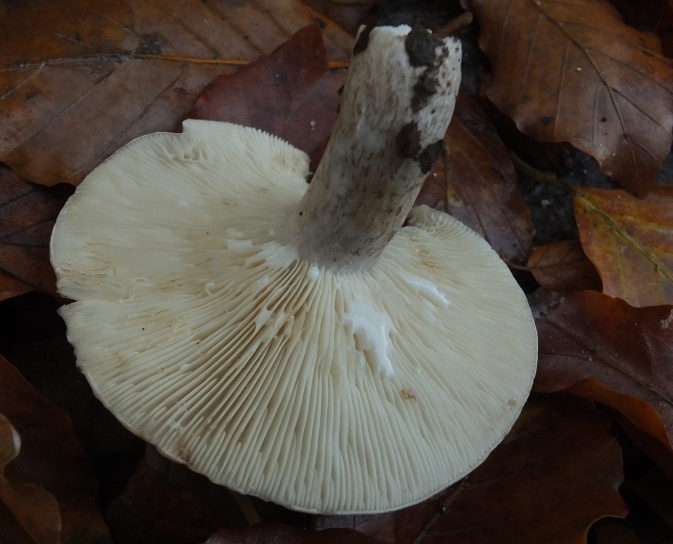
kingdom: Fungi
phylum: Basidiomycota
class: Agaricomycetes
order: Russulales
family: Russulaceae
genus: Lactarius
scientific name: Lactarius fluens
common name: lysrandet mælkehat
